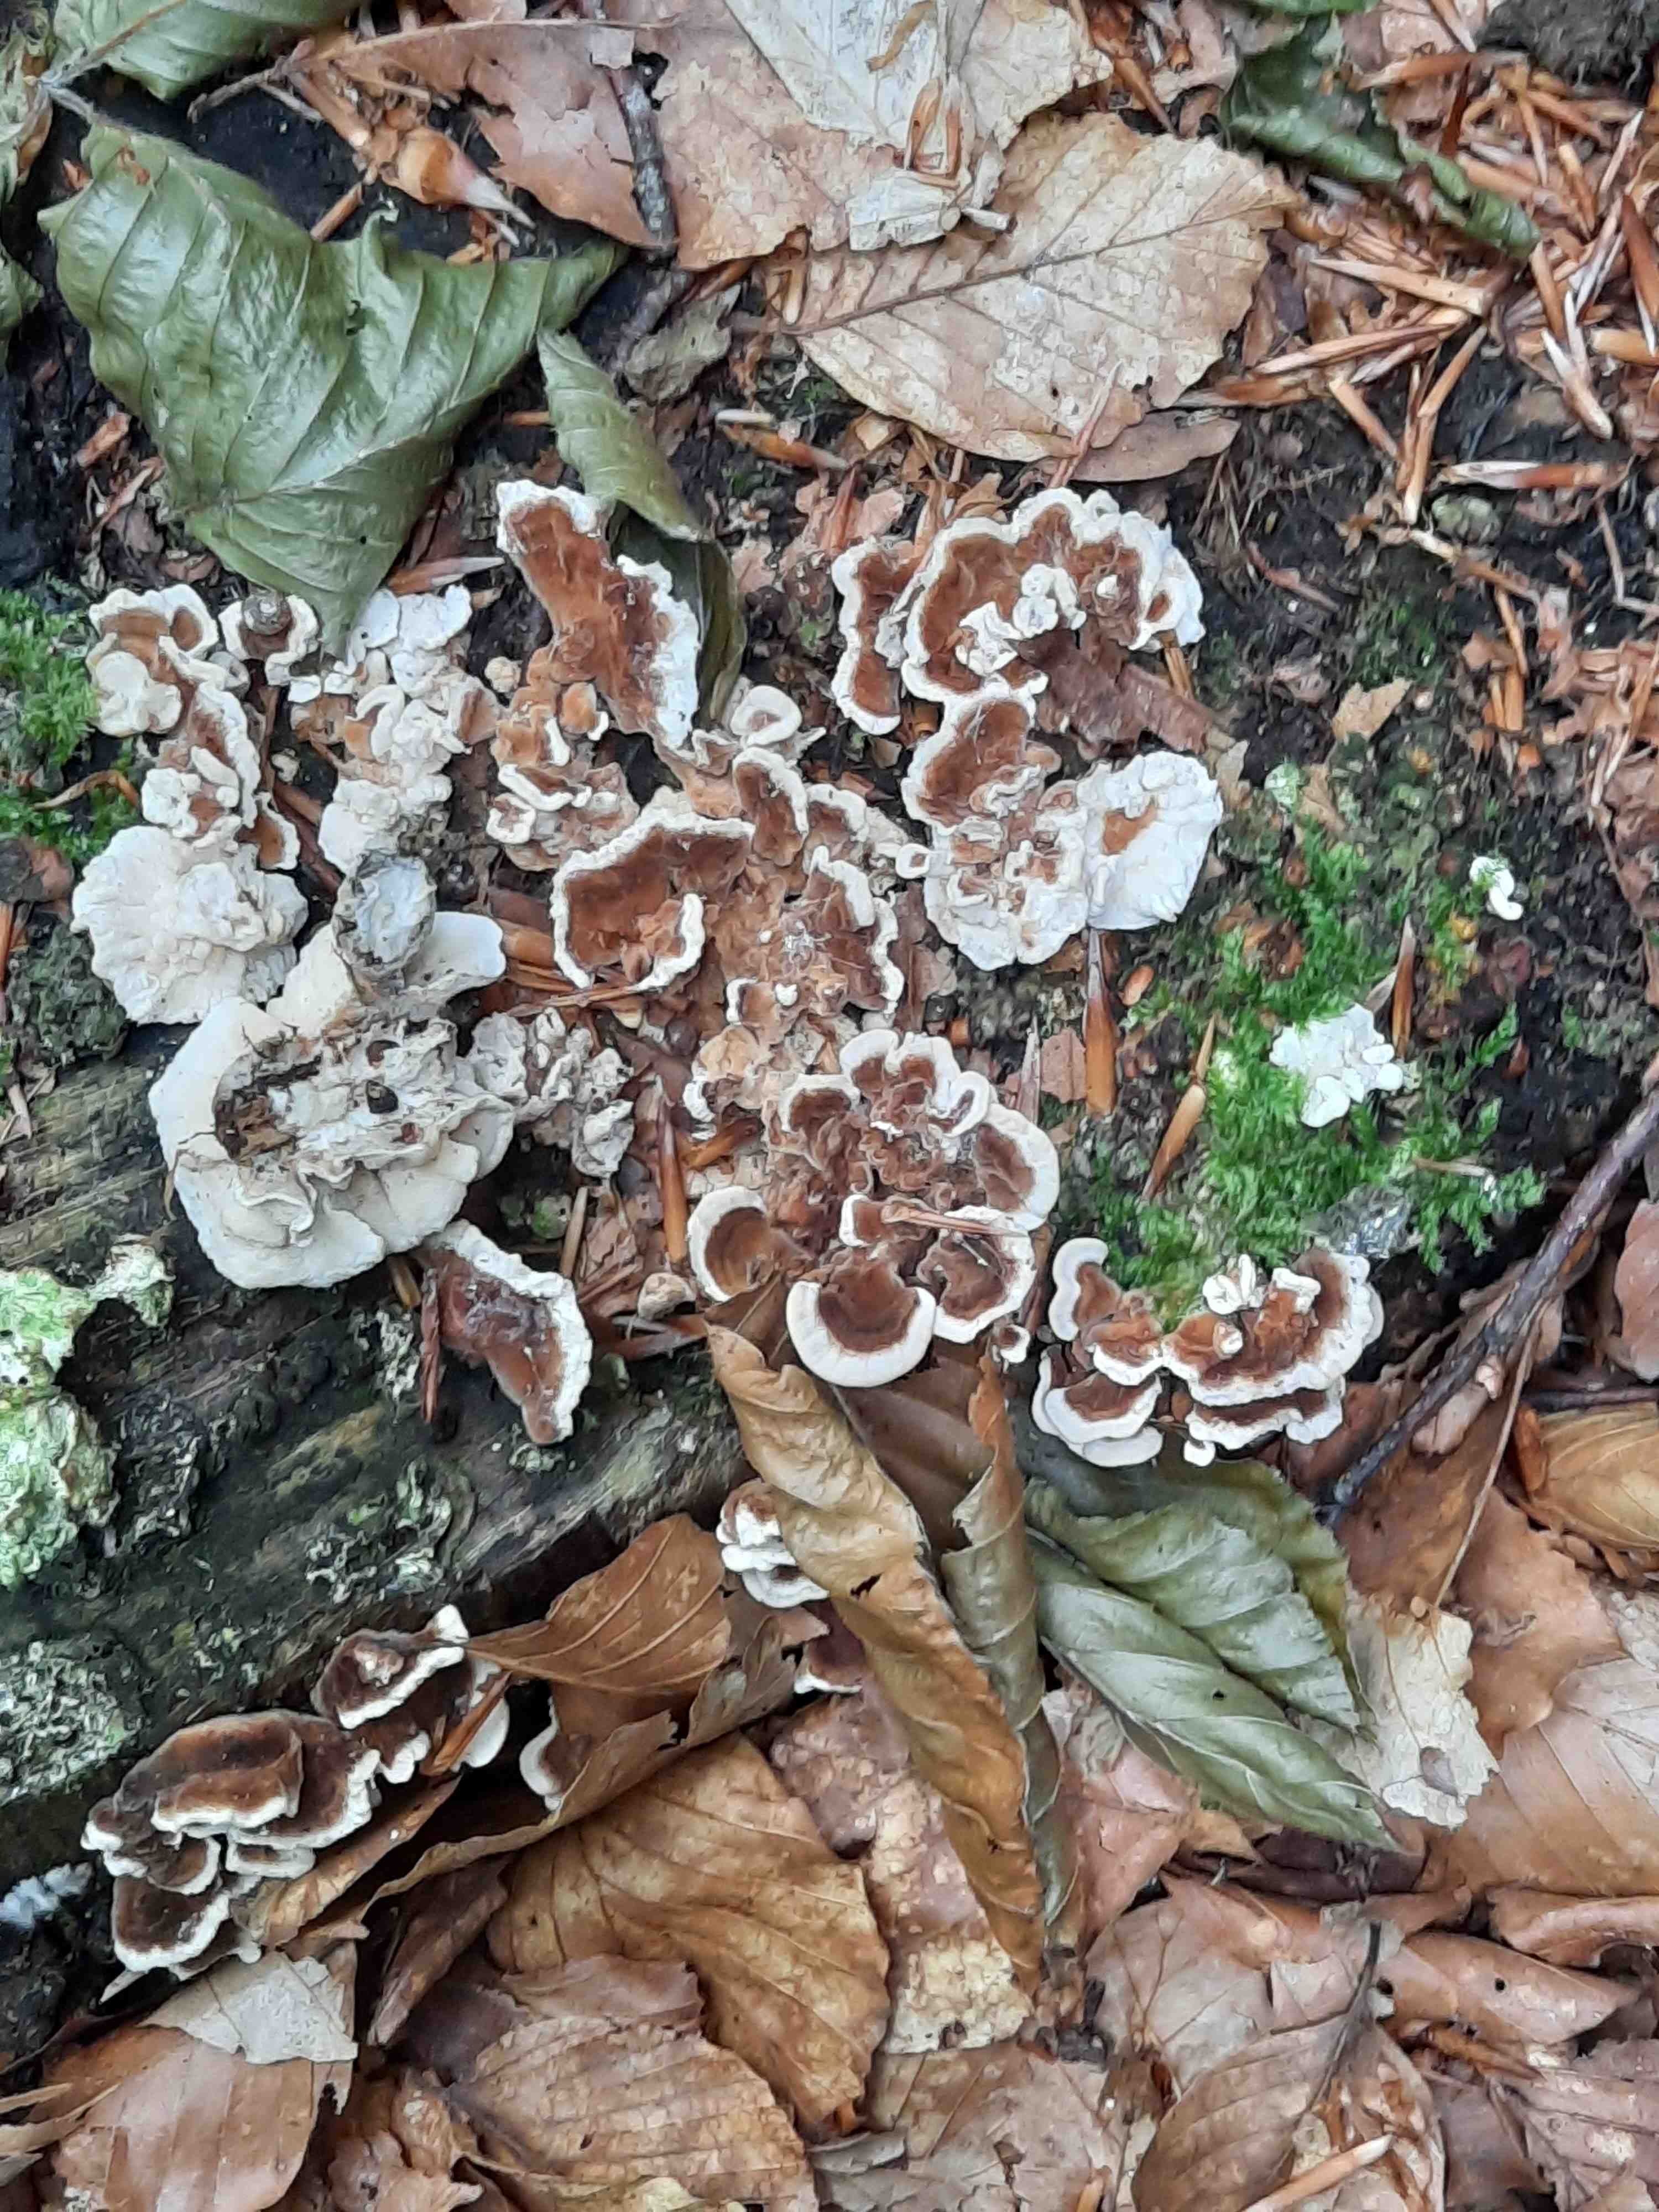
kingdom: Fungi
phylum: Basidiomycota
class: Agaricomycetes
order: Polyporales
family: Polyporaceae
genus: Trametes
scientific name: Trametes ochracea
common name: bæltet læderporesvamp
